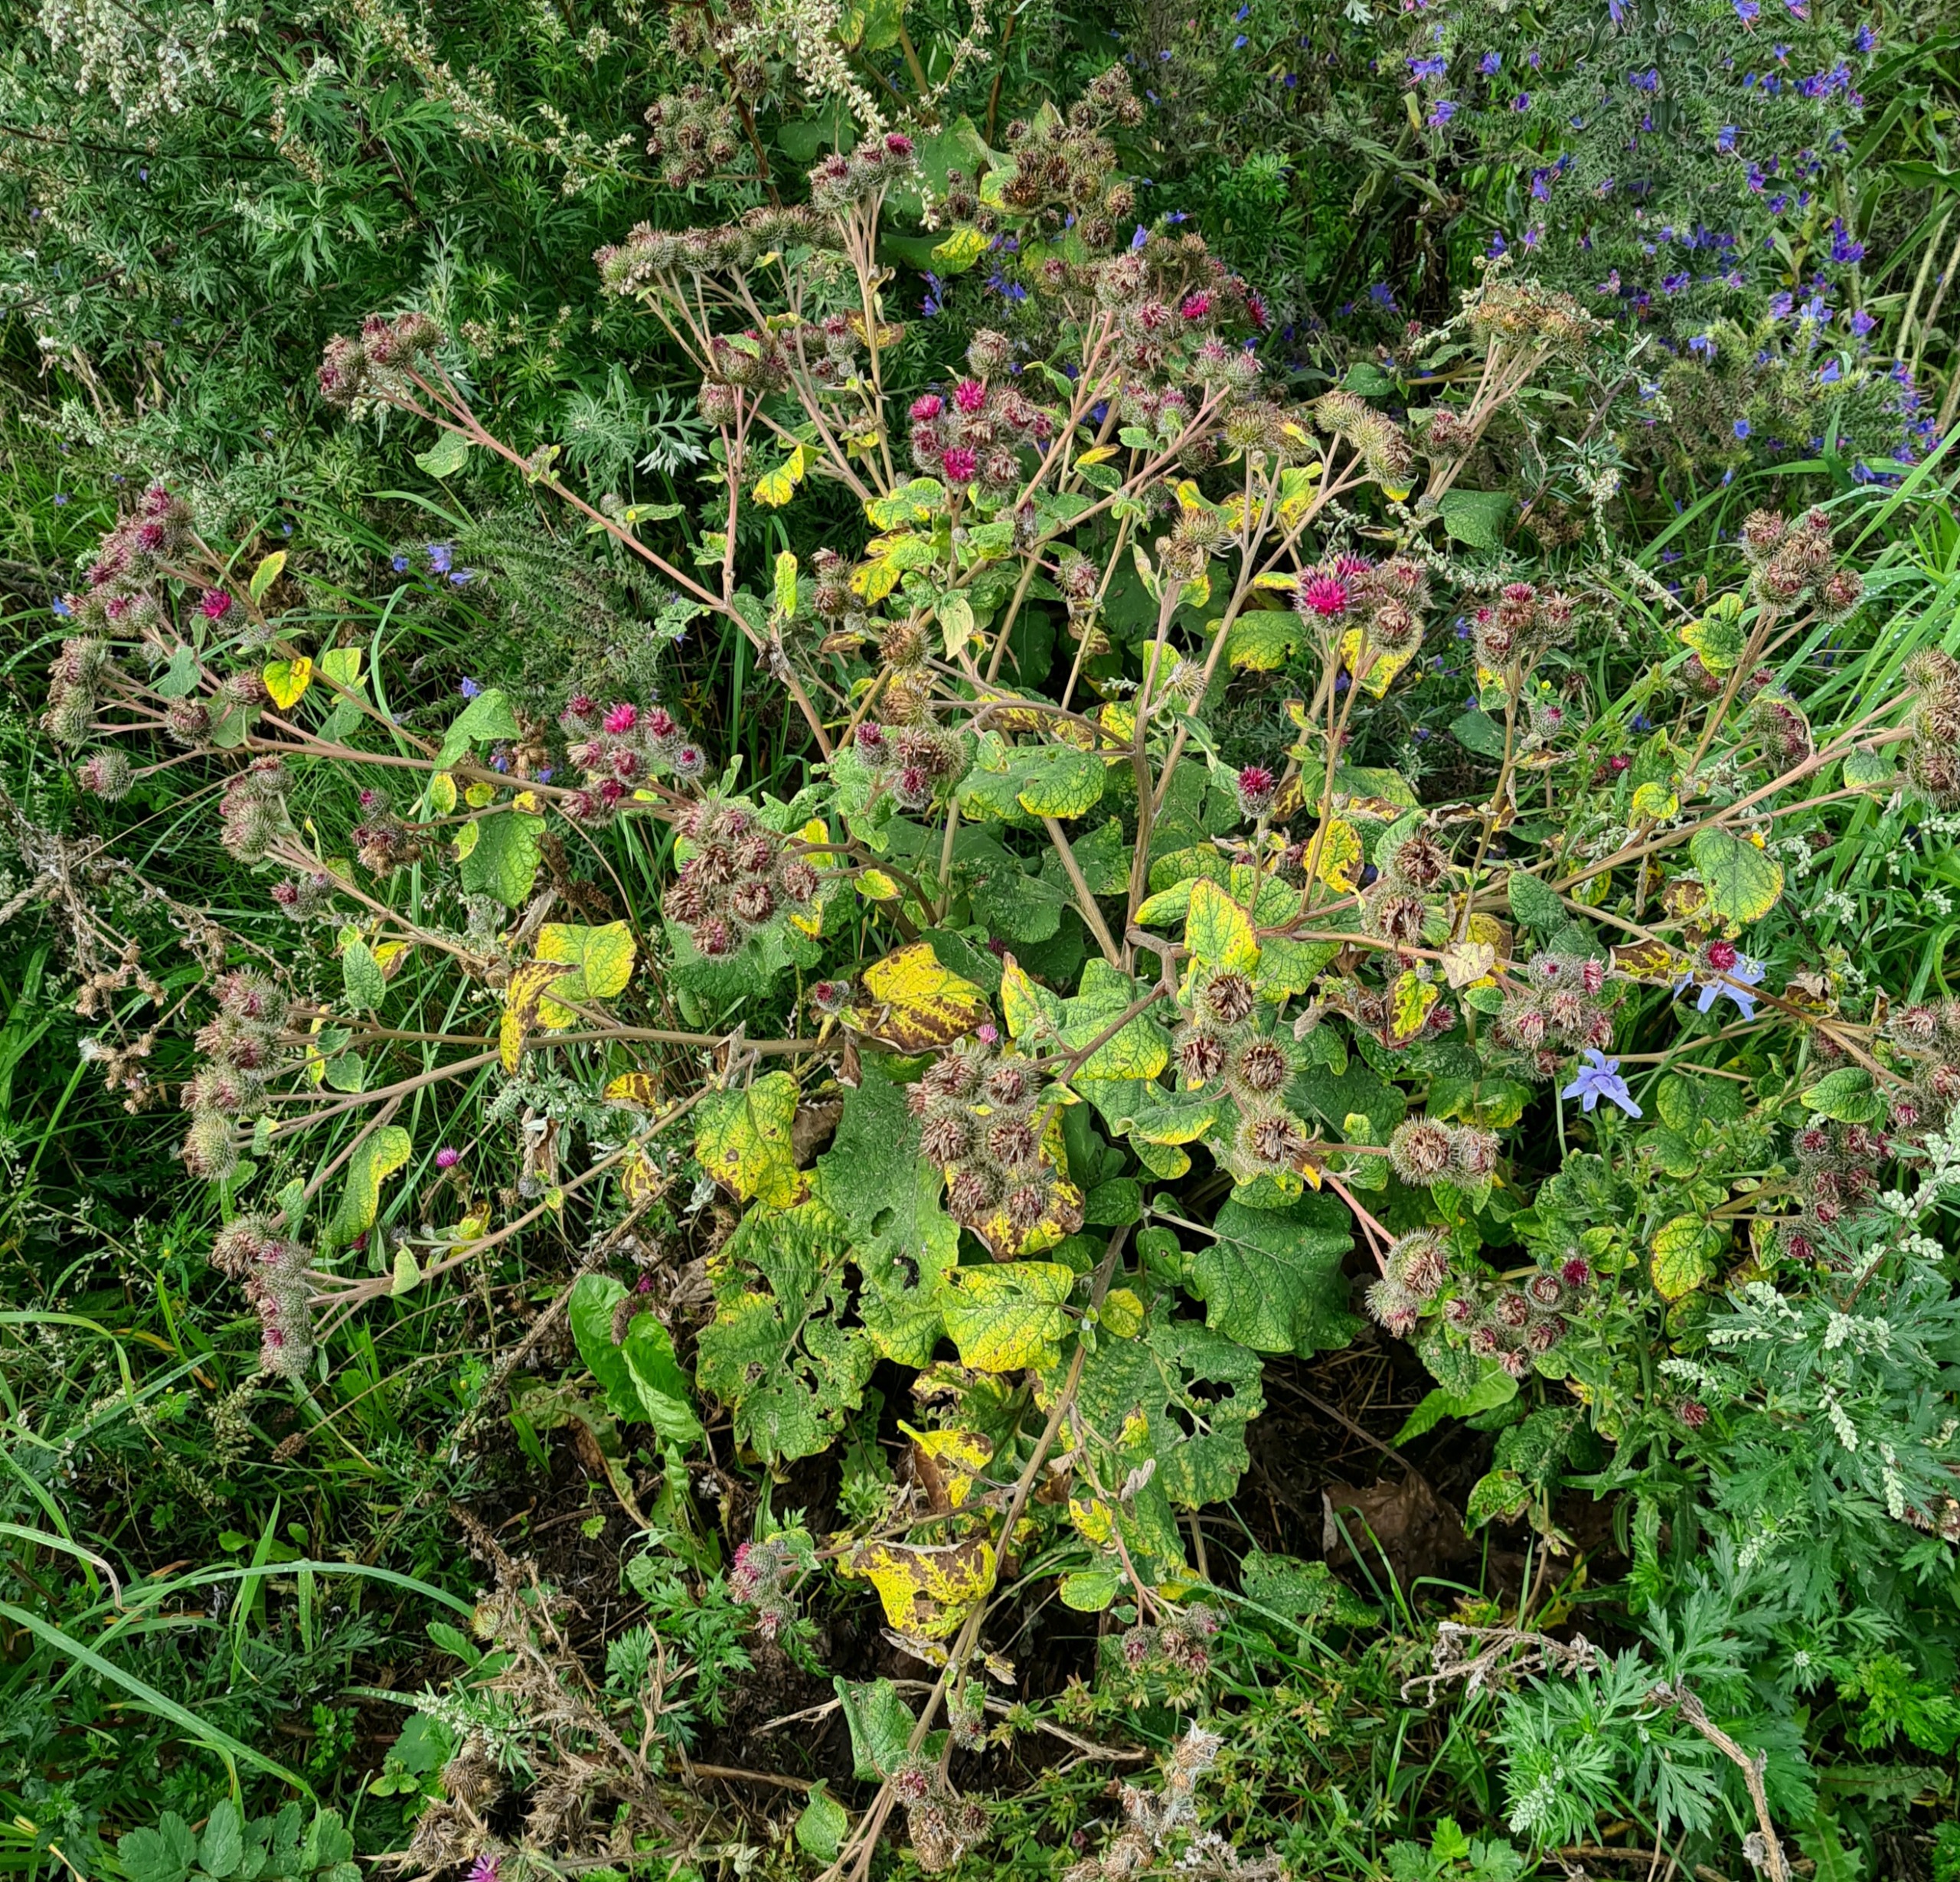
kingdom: Plantae
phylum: Tracheophyta
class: Magnoliopsida
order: Asterales
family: Asteraceae
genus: Arctium
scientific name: Arctium tomentosum
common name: Filtet burre
